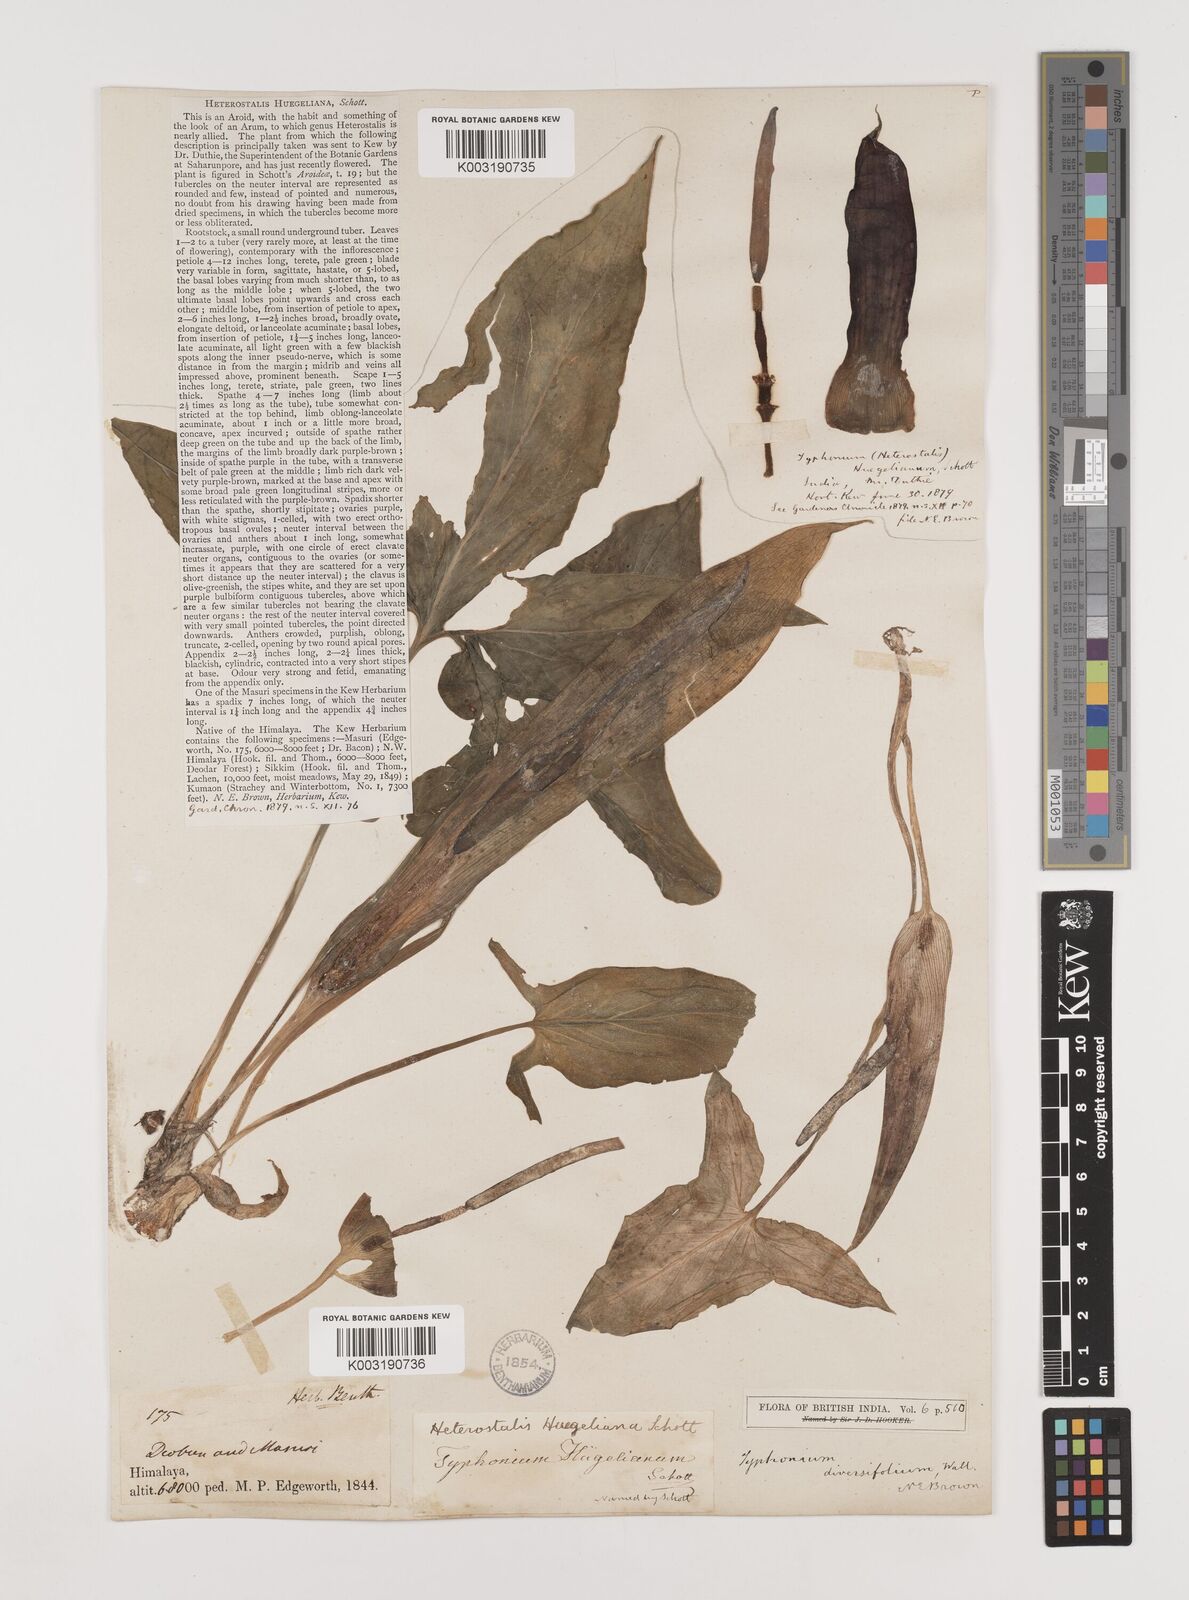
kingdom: Plantae
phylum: Tracheophyta
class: Liliopsida
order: Alismatales
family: Araceae
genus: Sauromatum
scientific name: Sauromatum diversifolium
